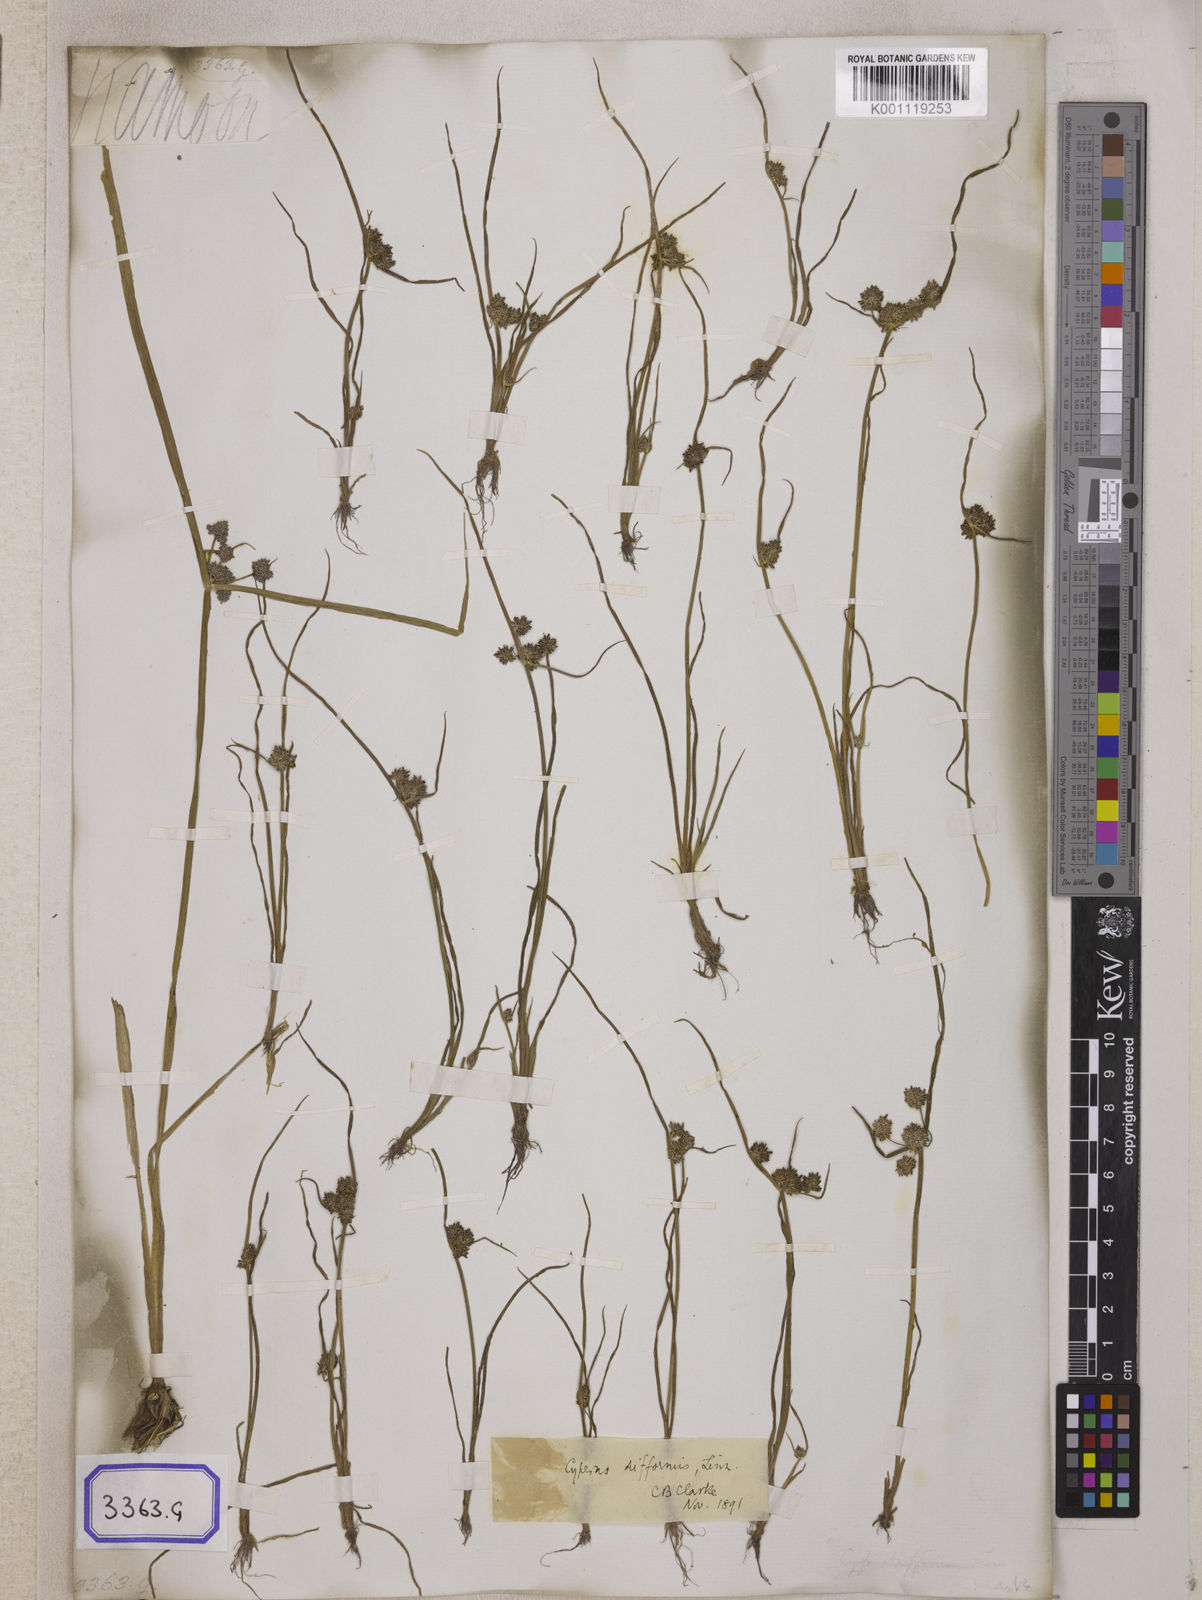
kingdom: Plantae
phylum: Tracheophyta
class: Liliopsida
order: Poales
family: Cyperaceae
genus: Cyperus
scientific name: Cyperus
